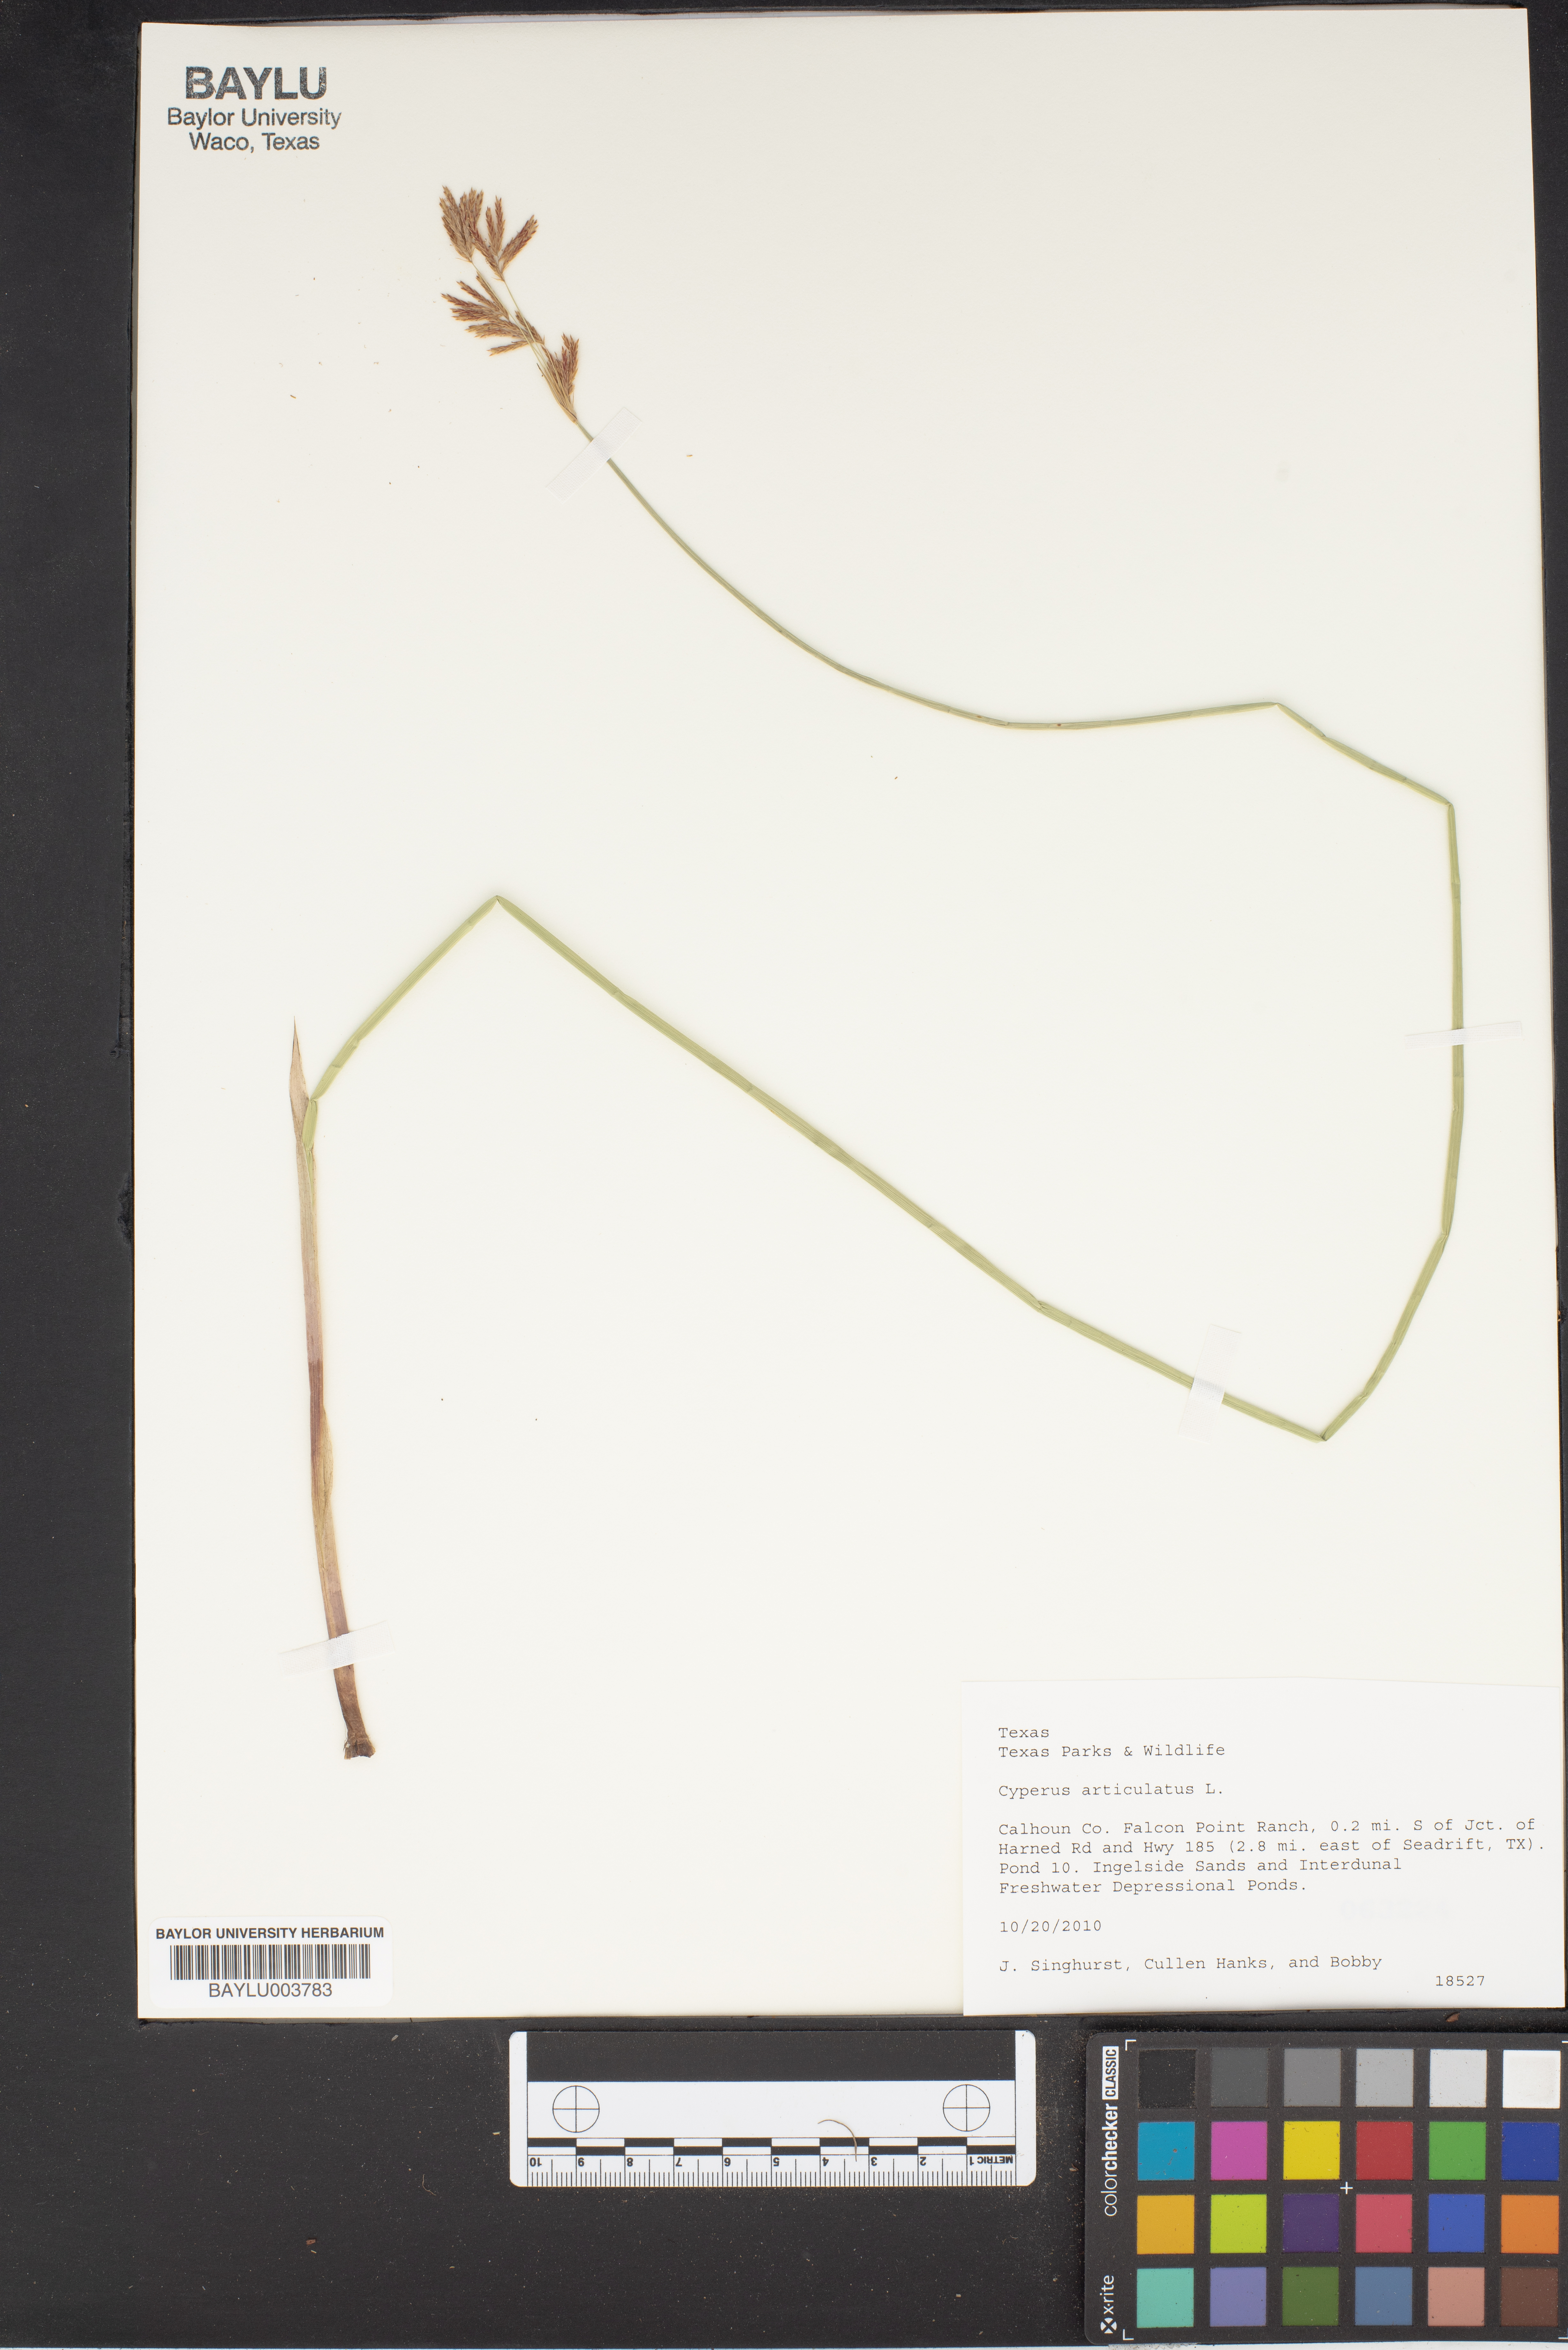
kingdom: Plantae
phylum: Tracheophyta
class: Liliopsida
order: Poales
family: Cyperaceae
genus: Cyperus
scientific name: Cyperus articulatus
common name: Jointed flatsedge
